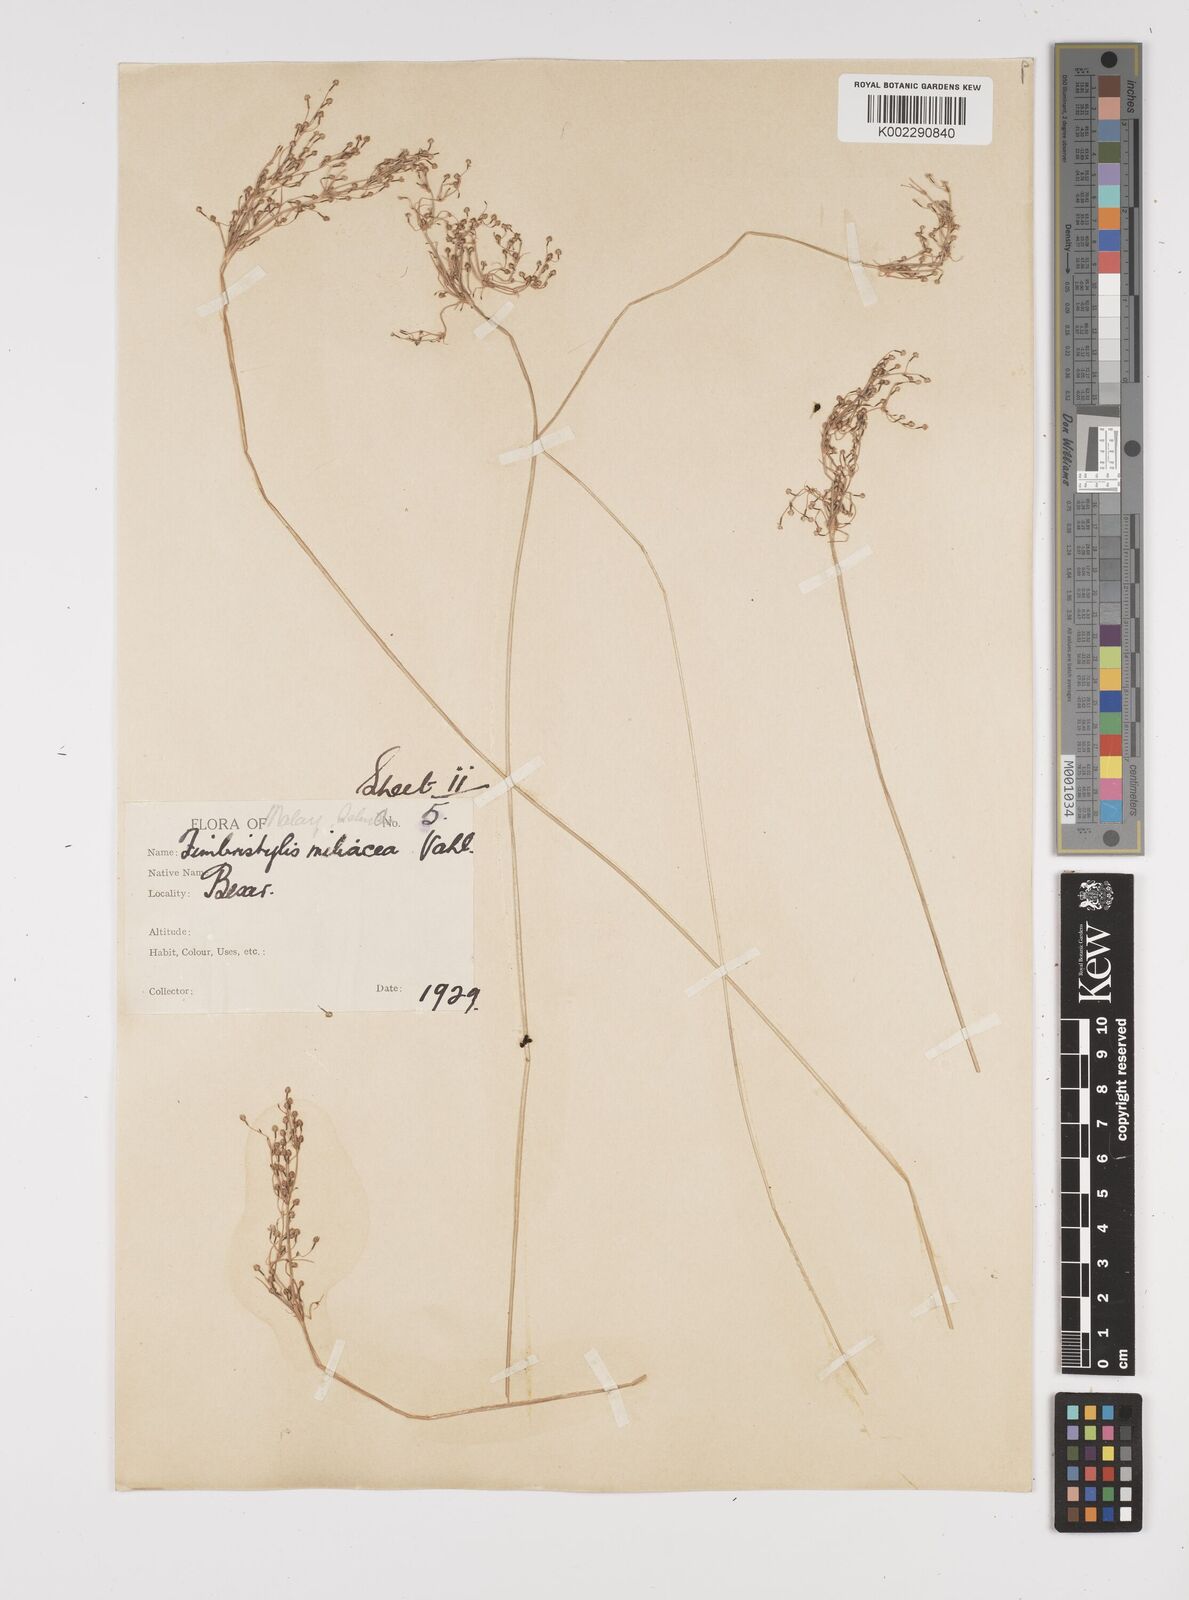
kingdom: Plantae
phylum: Tracheophyta
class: Liliopsida
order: Poales
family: Cyperaceae
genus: Fimbristylis
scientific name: Fimbristylis littoralis
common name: Fimbry
